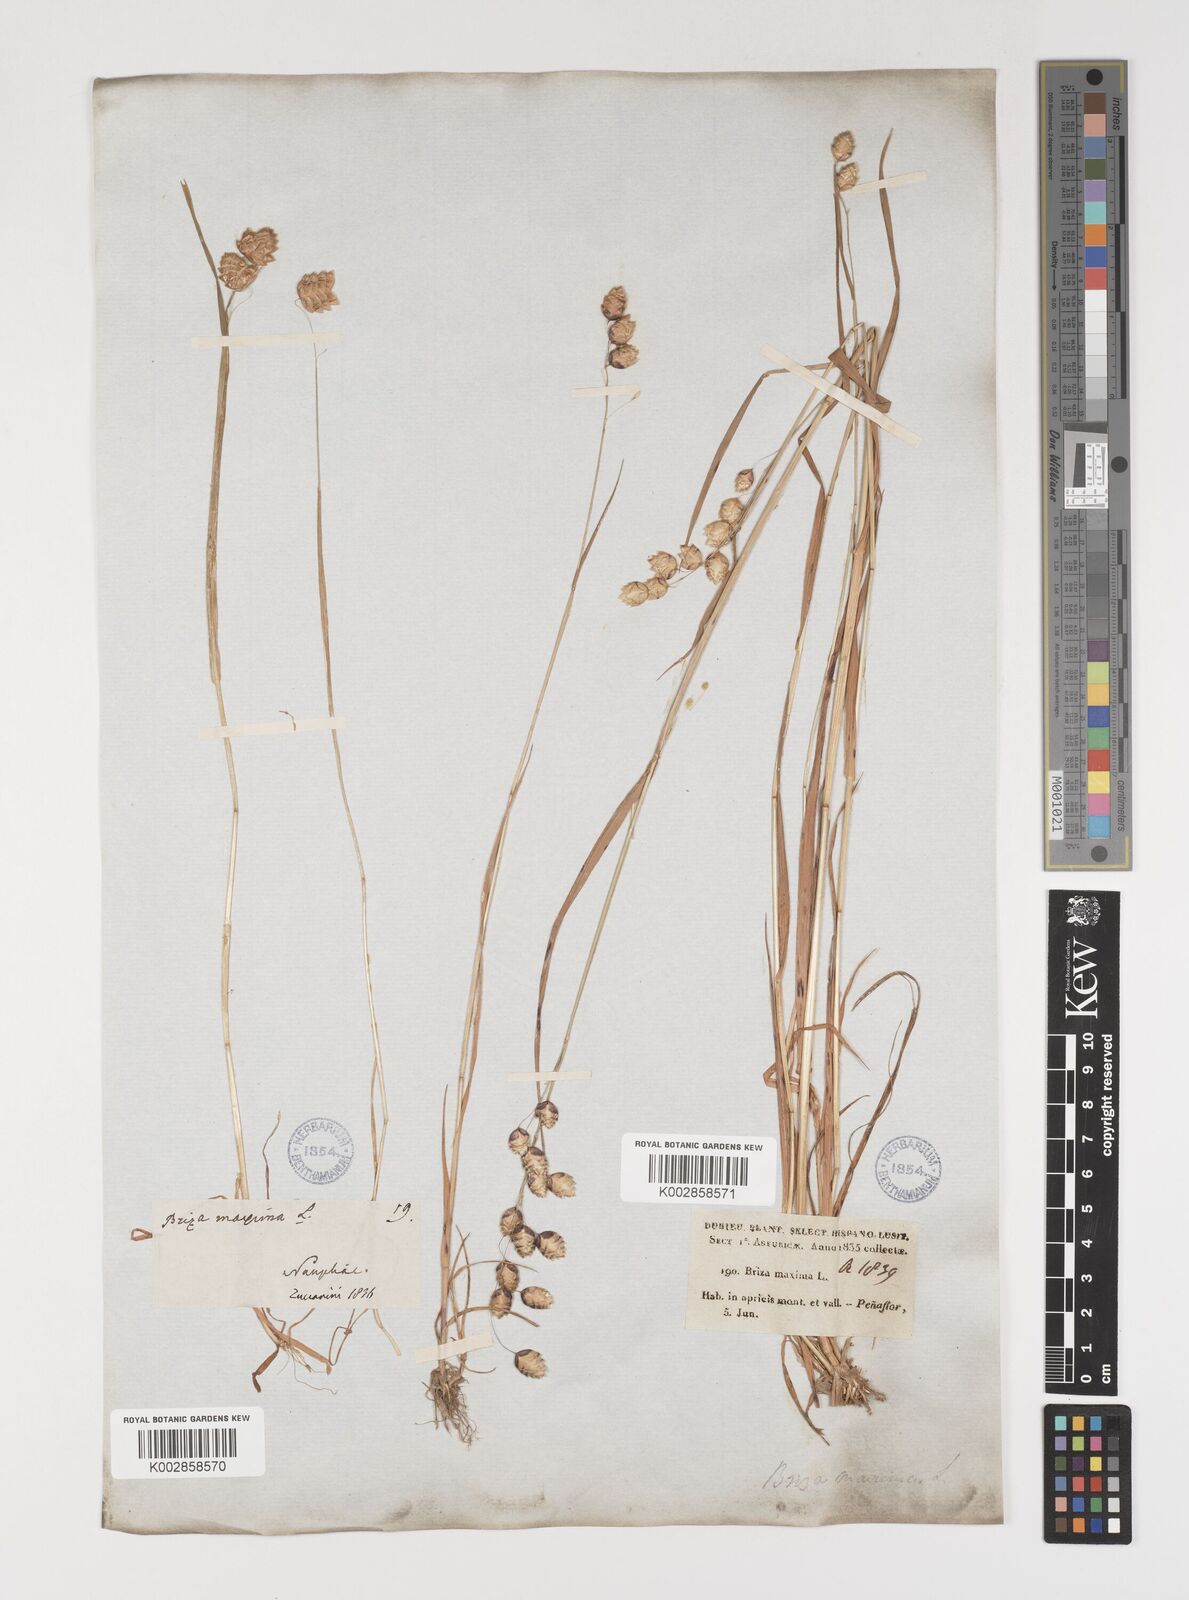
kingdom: Plantae
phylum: Tracheophyta
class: Liliopsida
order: Poales
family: Poaceae
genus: Briza
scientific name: Briza maxima
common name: Big quakinggrass
